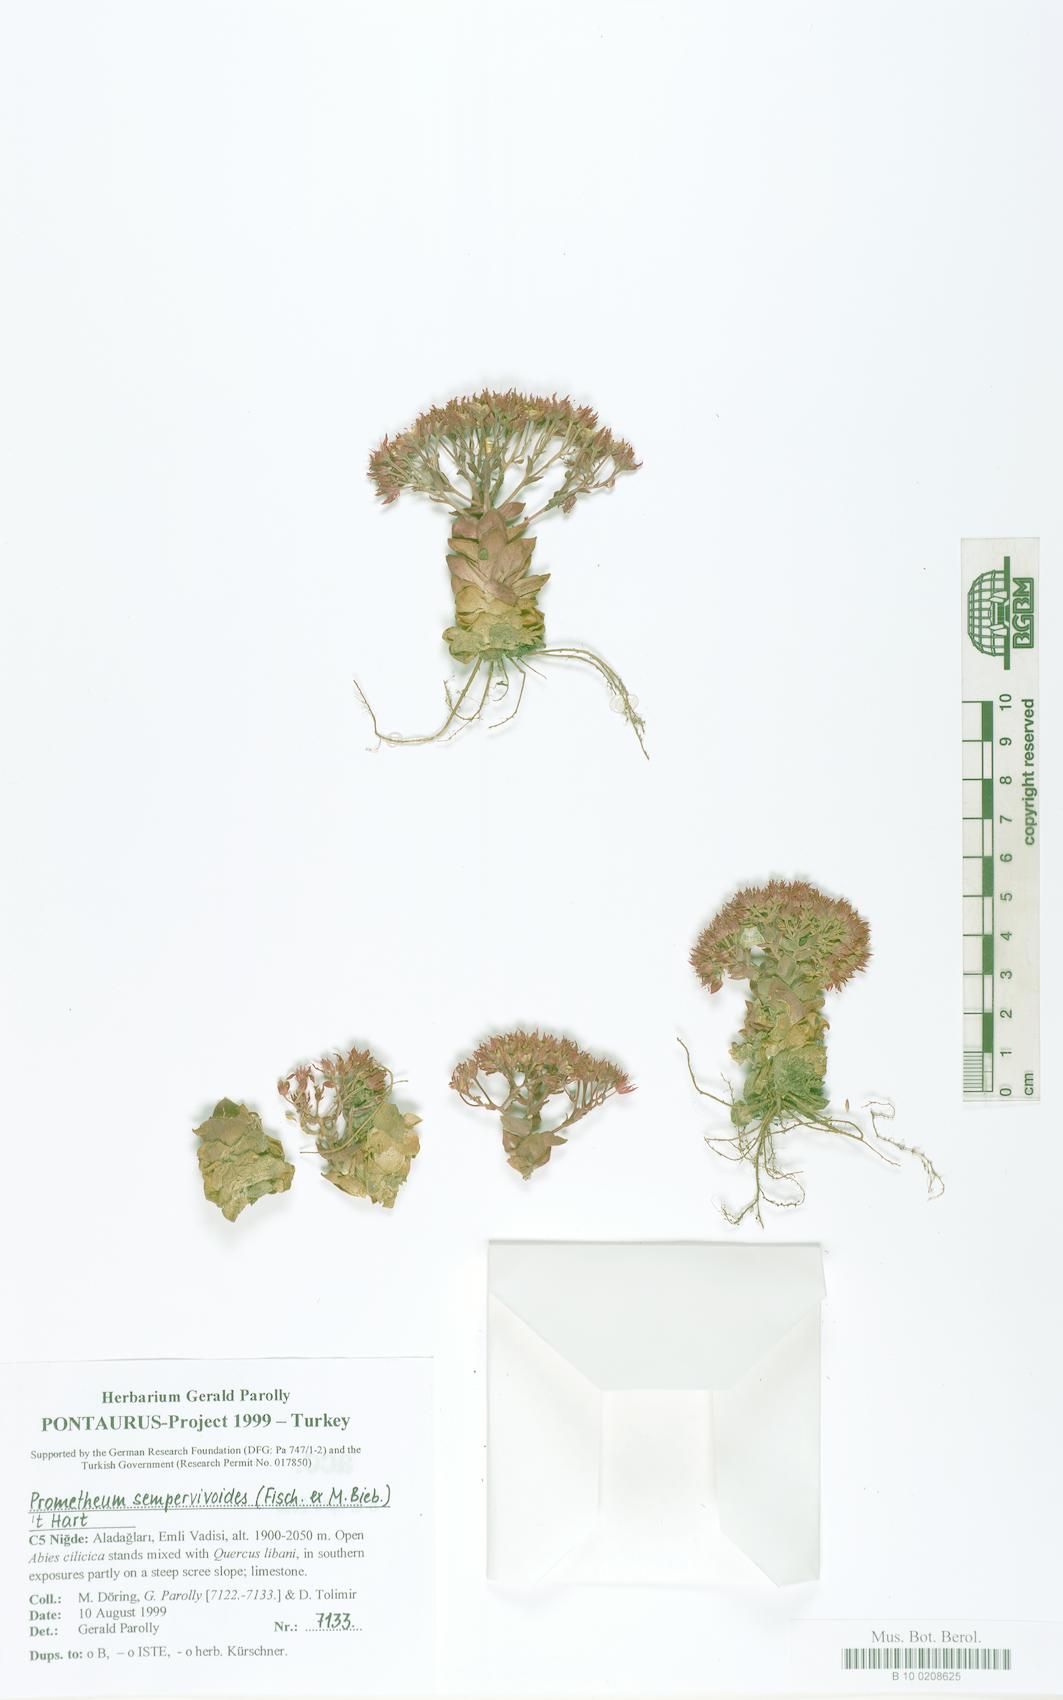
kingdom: Plantae
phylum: Tracheophyta
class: Magnoliopsida
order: Saxifragales
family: Crassulaceae
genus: Prometheum
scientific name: Prometheum sempervivoides
